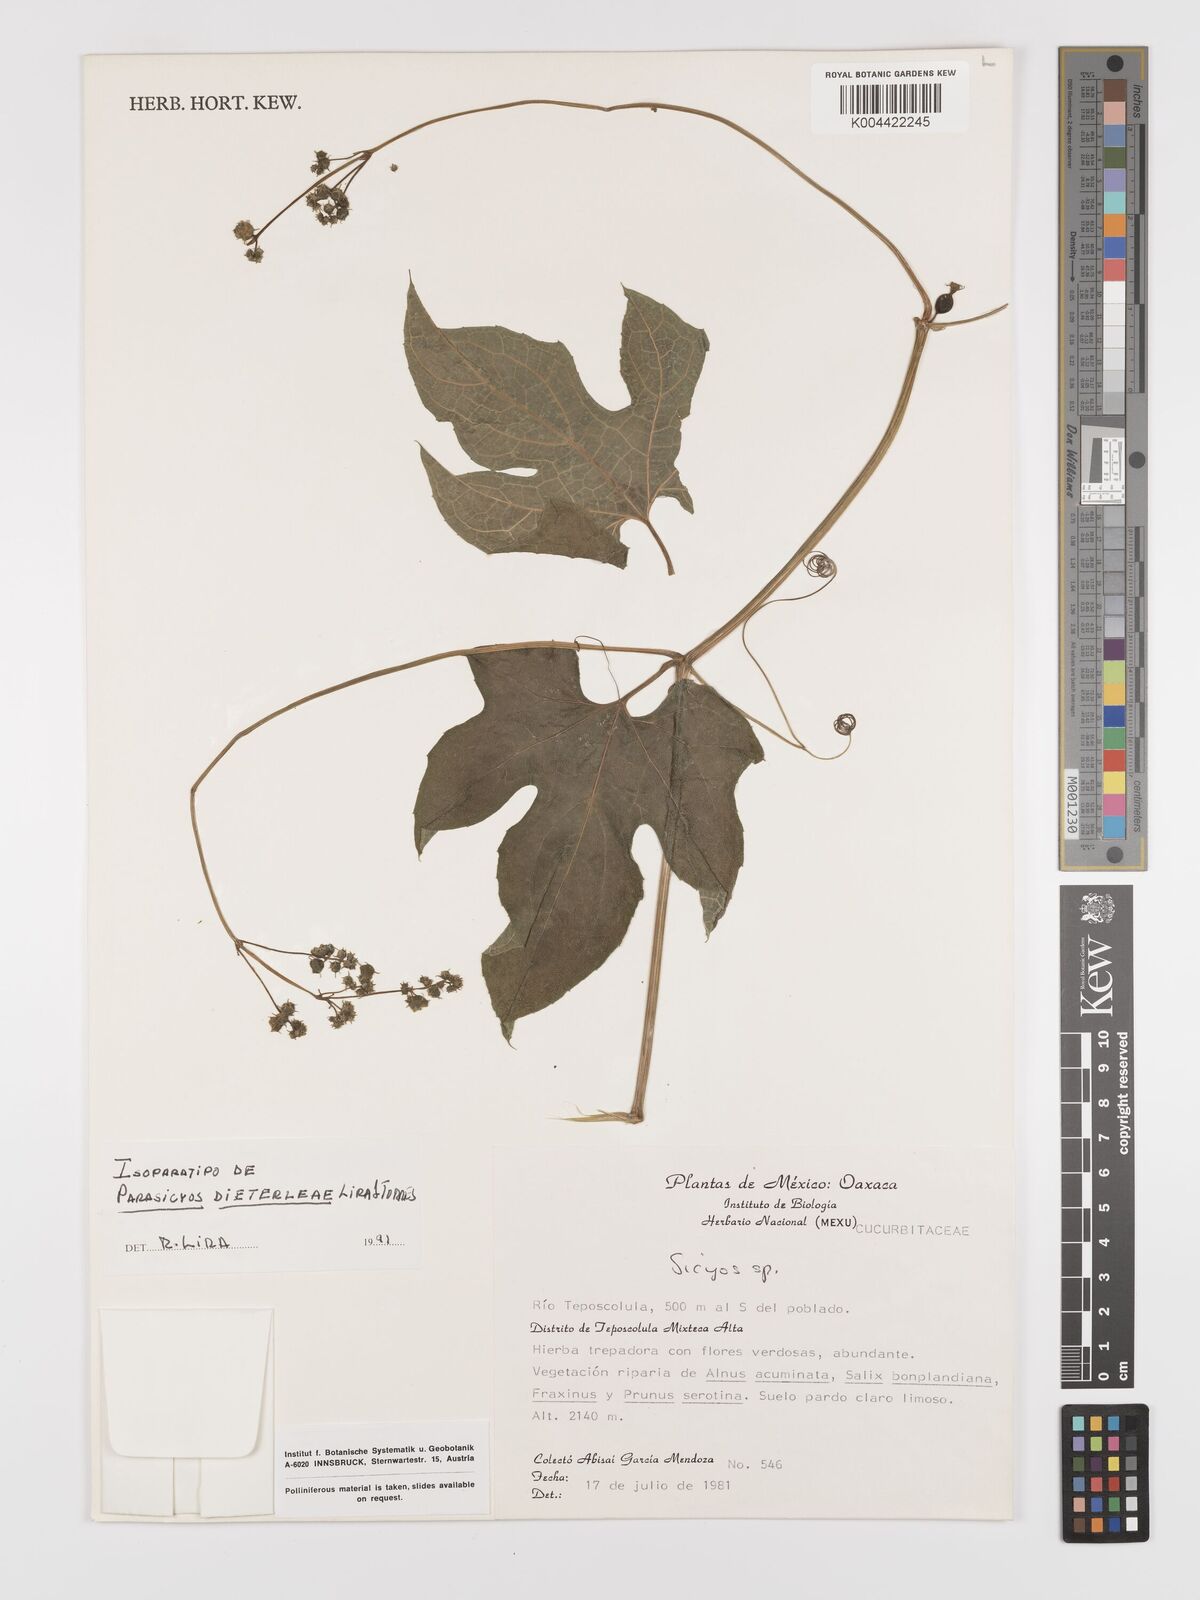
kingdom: Plantae
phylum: Tracheophyta
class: Magnoliopsida
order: Cucurbitales
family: Cucurbitaceae
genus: Parasicyos
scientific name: Parasicyos dieterleae
